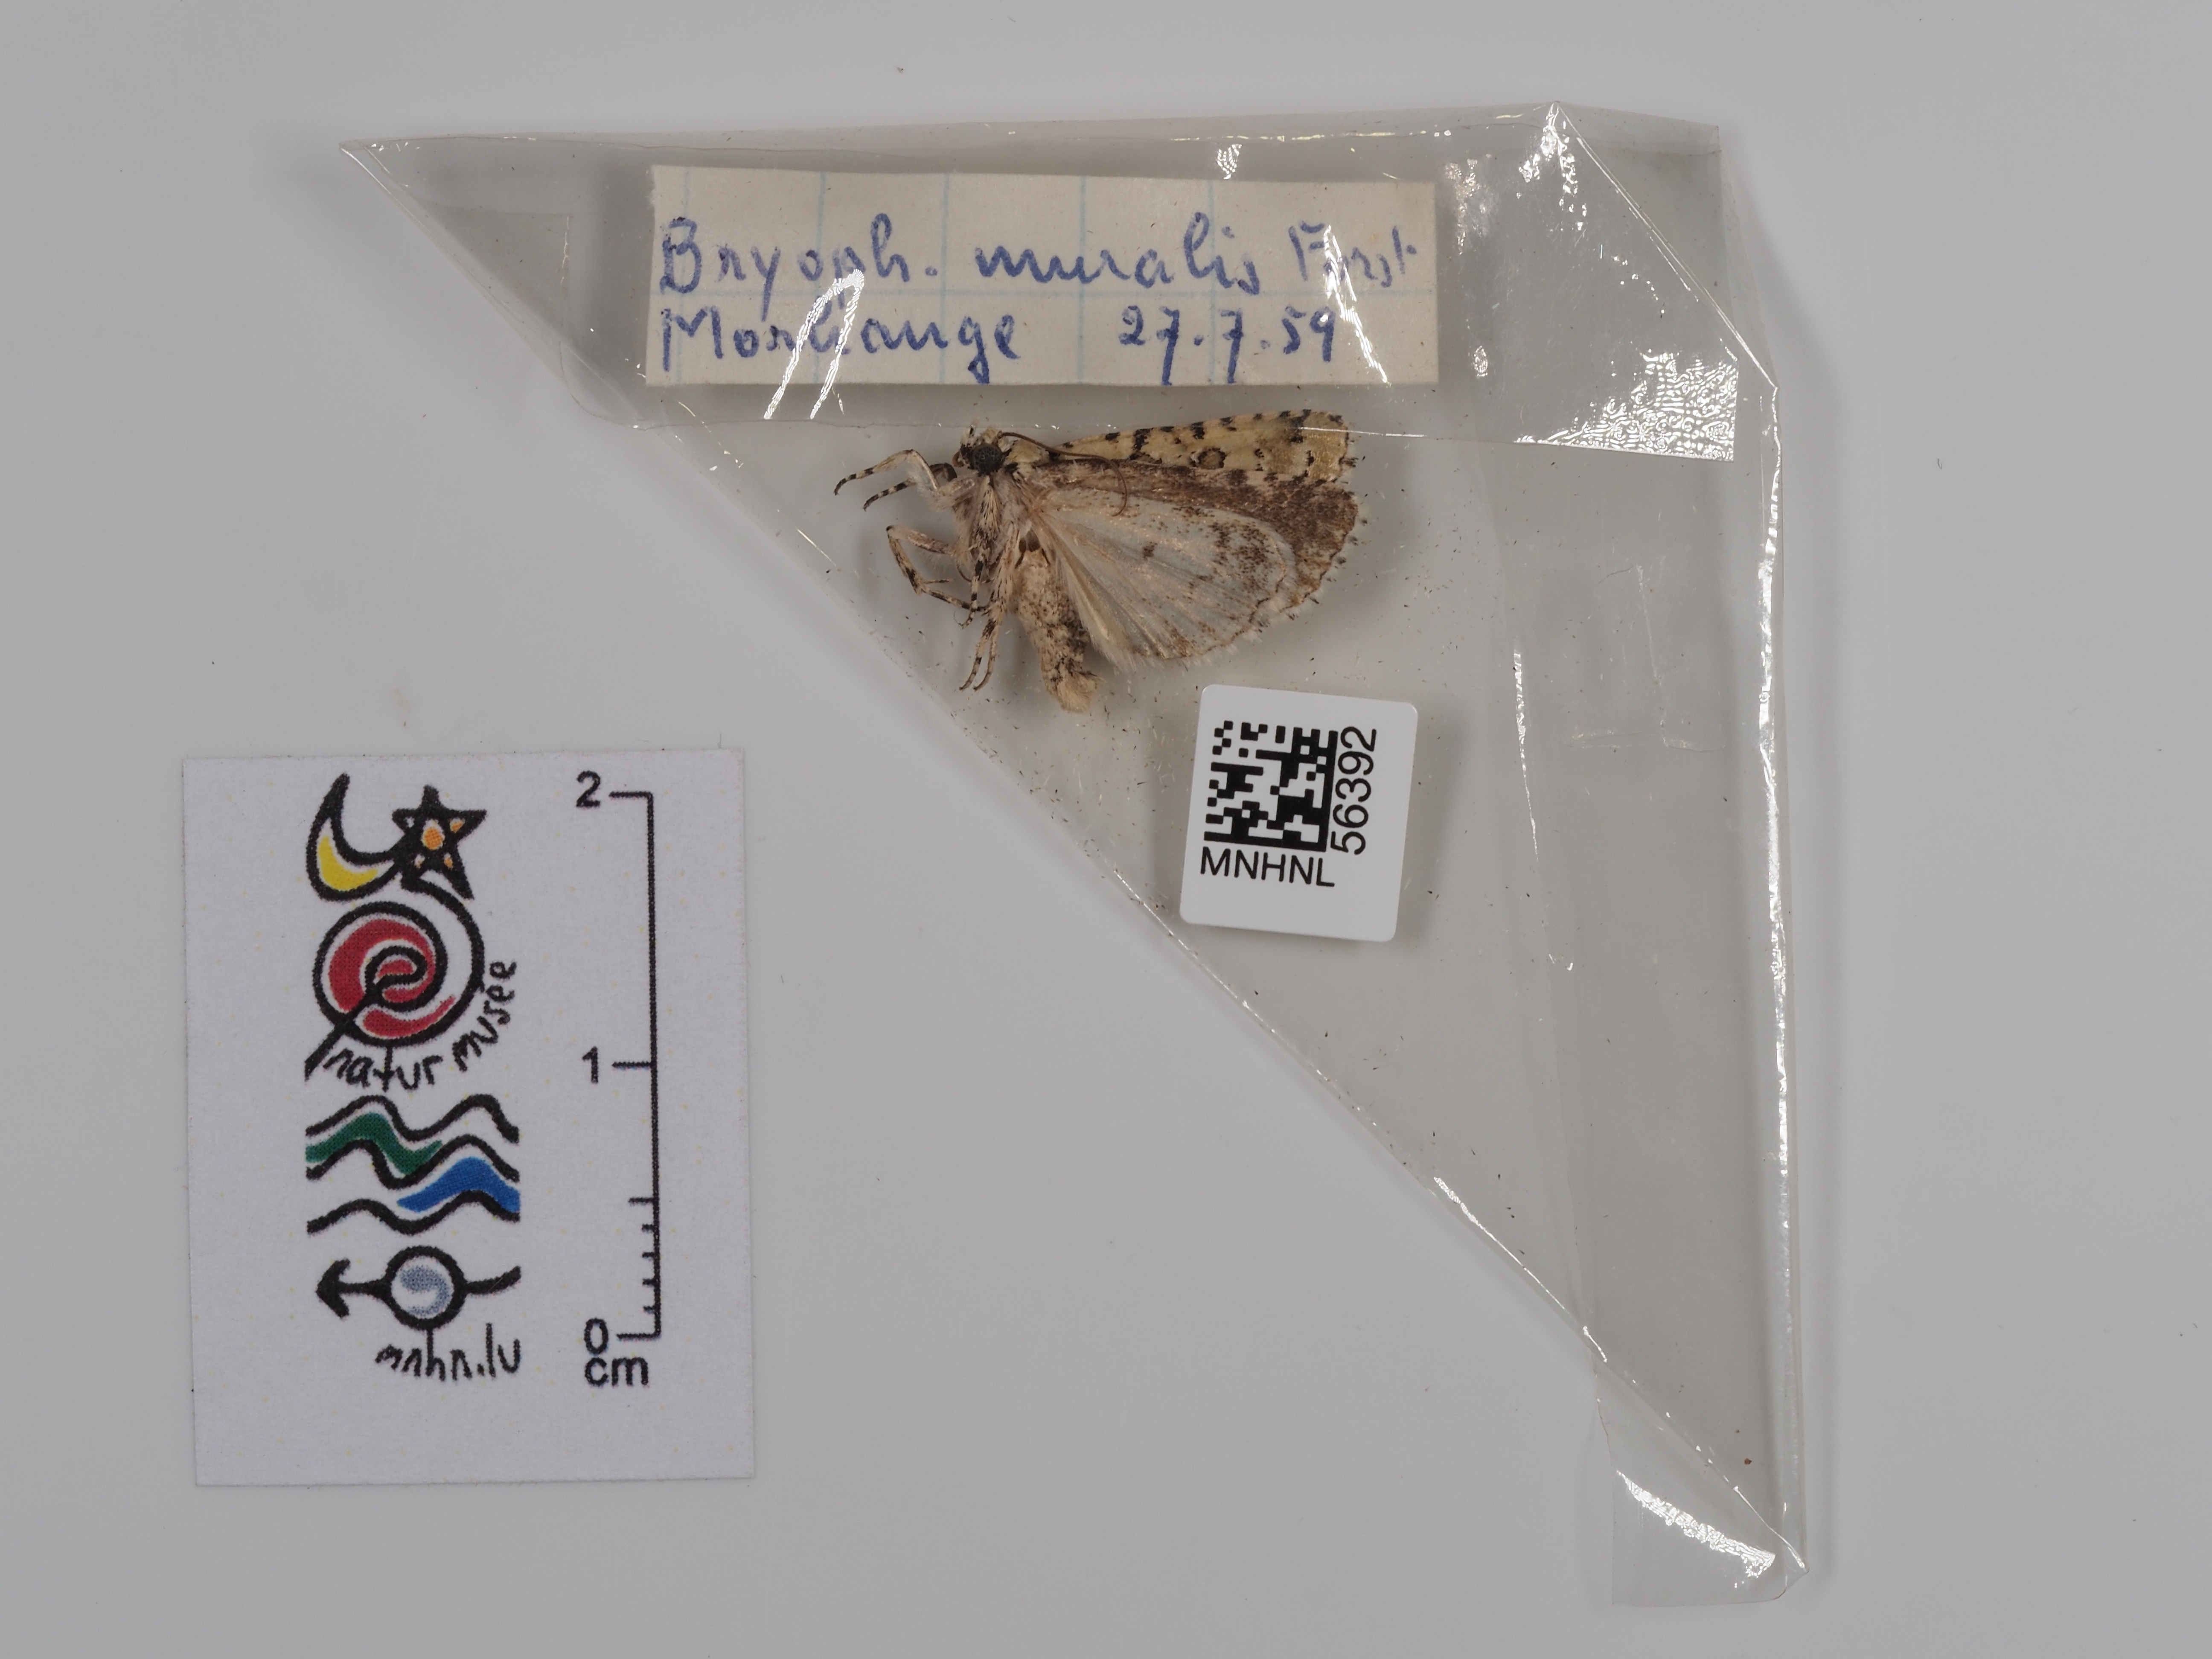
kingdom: Animalia
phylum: Arthropoda
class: Insecta
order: Lepidoptera
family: Noctuidae
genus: Nyctobrya
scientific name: Nyctobrya muralis
